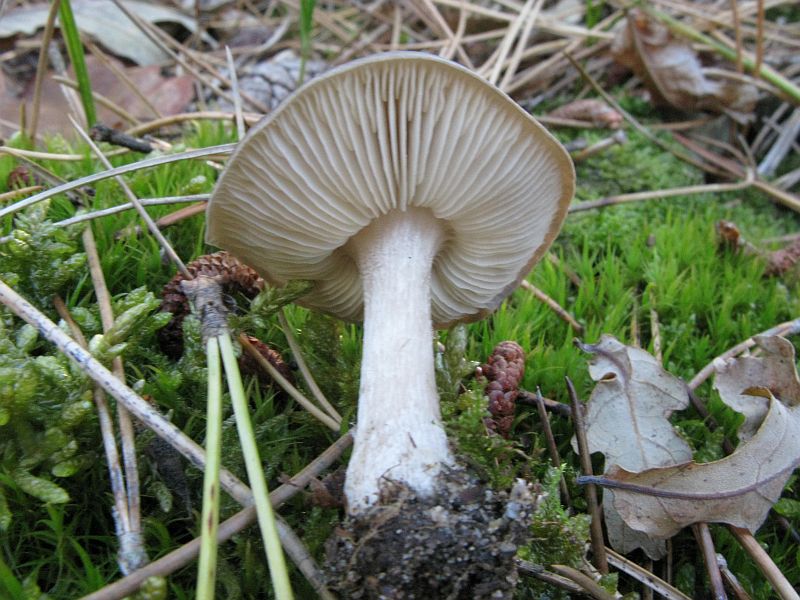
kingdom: Fungi
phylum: Basidiomycota
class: Agaricomycetes
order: Agaricales
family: Tricholomataceae
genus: Melanoleuca
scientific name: Melanoleuca polioleuca
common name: hvidbladet munkehat
